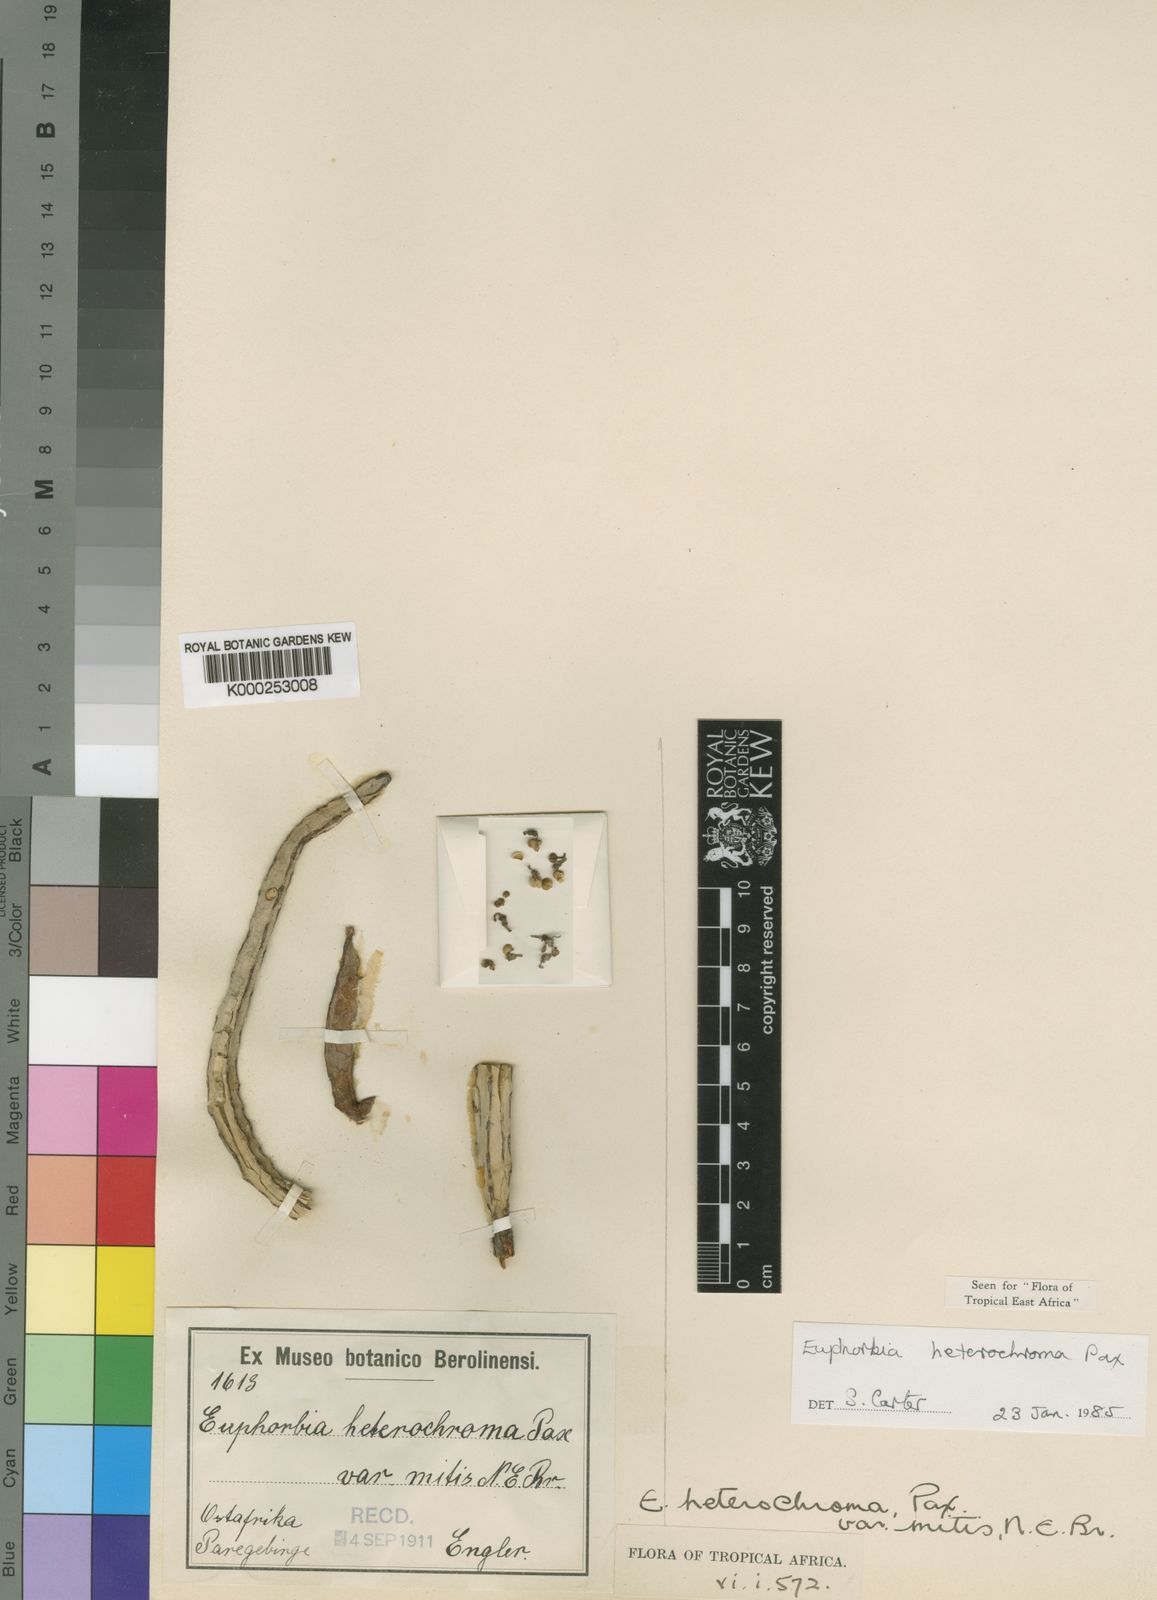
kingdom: Plantae
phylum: Tracheophyta
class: Magnoliopsida
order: Malpighiales
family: Euphorbiaceae
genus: Euphorbia
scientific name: Euphorbia heterochroma
